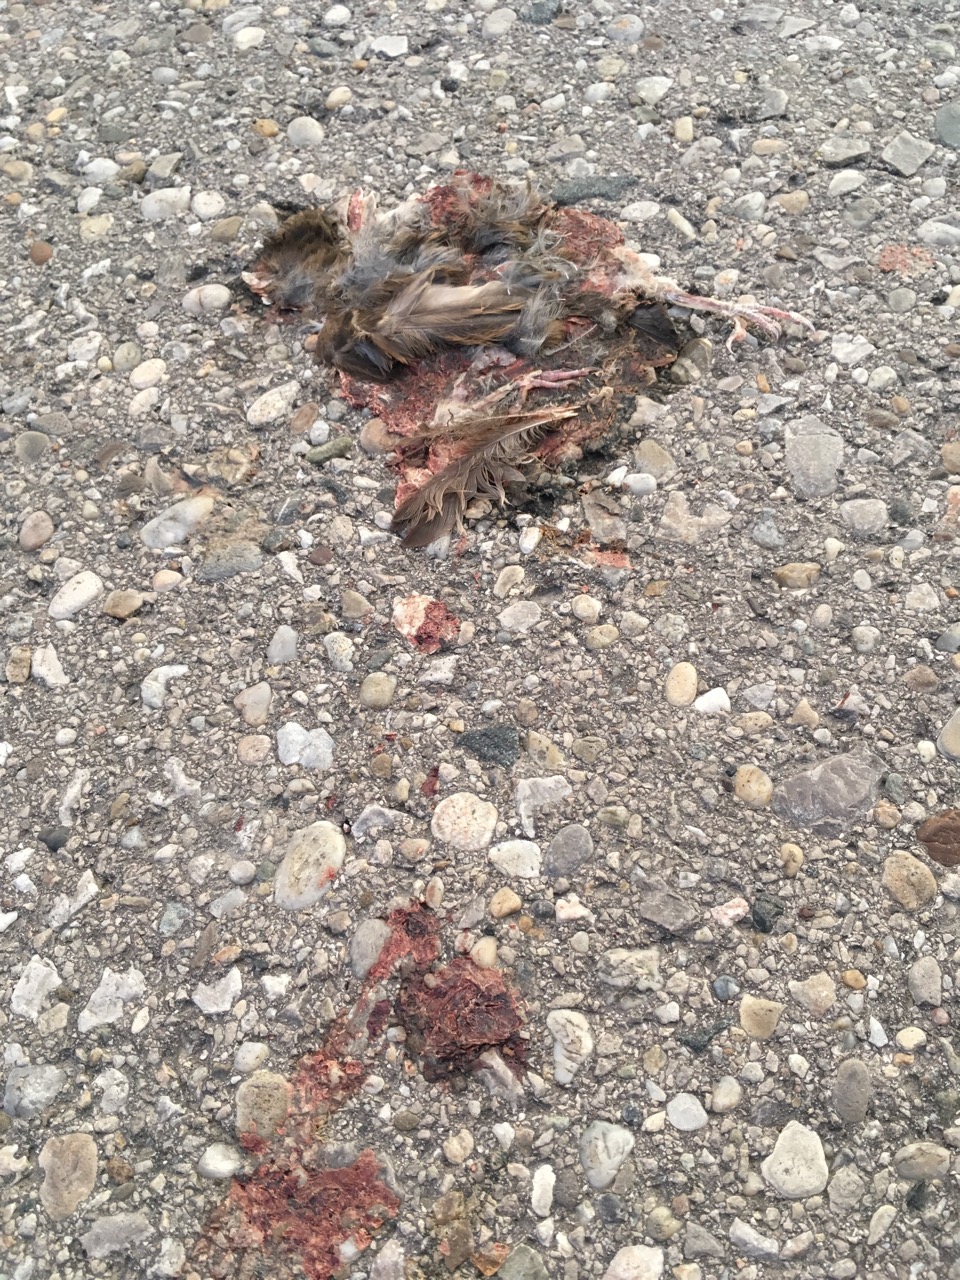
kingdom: Animalia
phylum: Chordata
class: Aves
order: Passeriformes
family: Passeridae
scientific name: Passeridae
